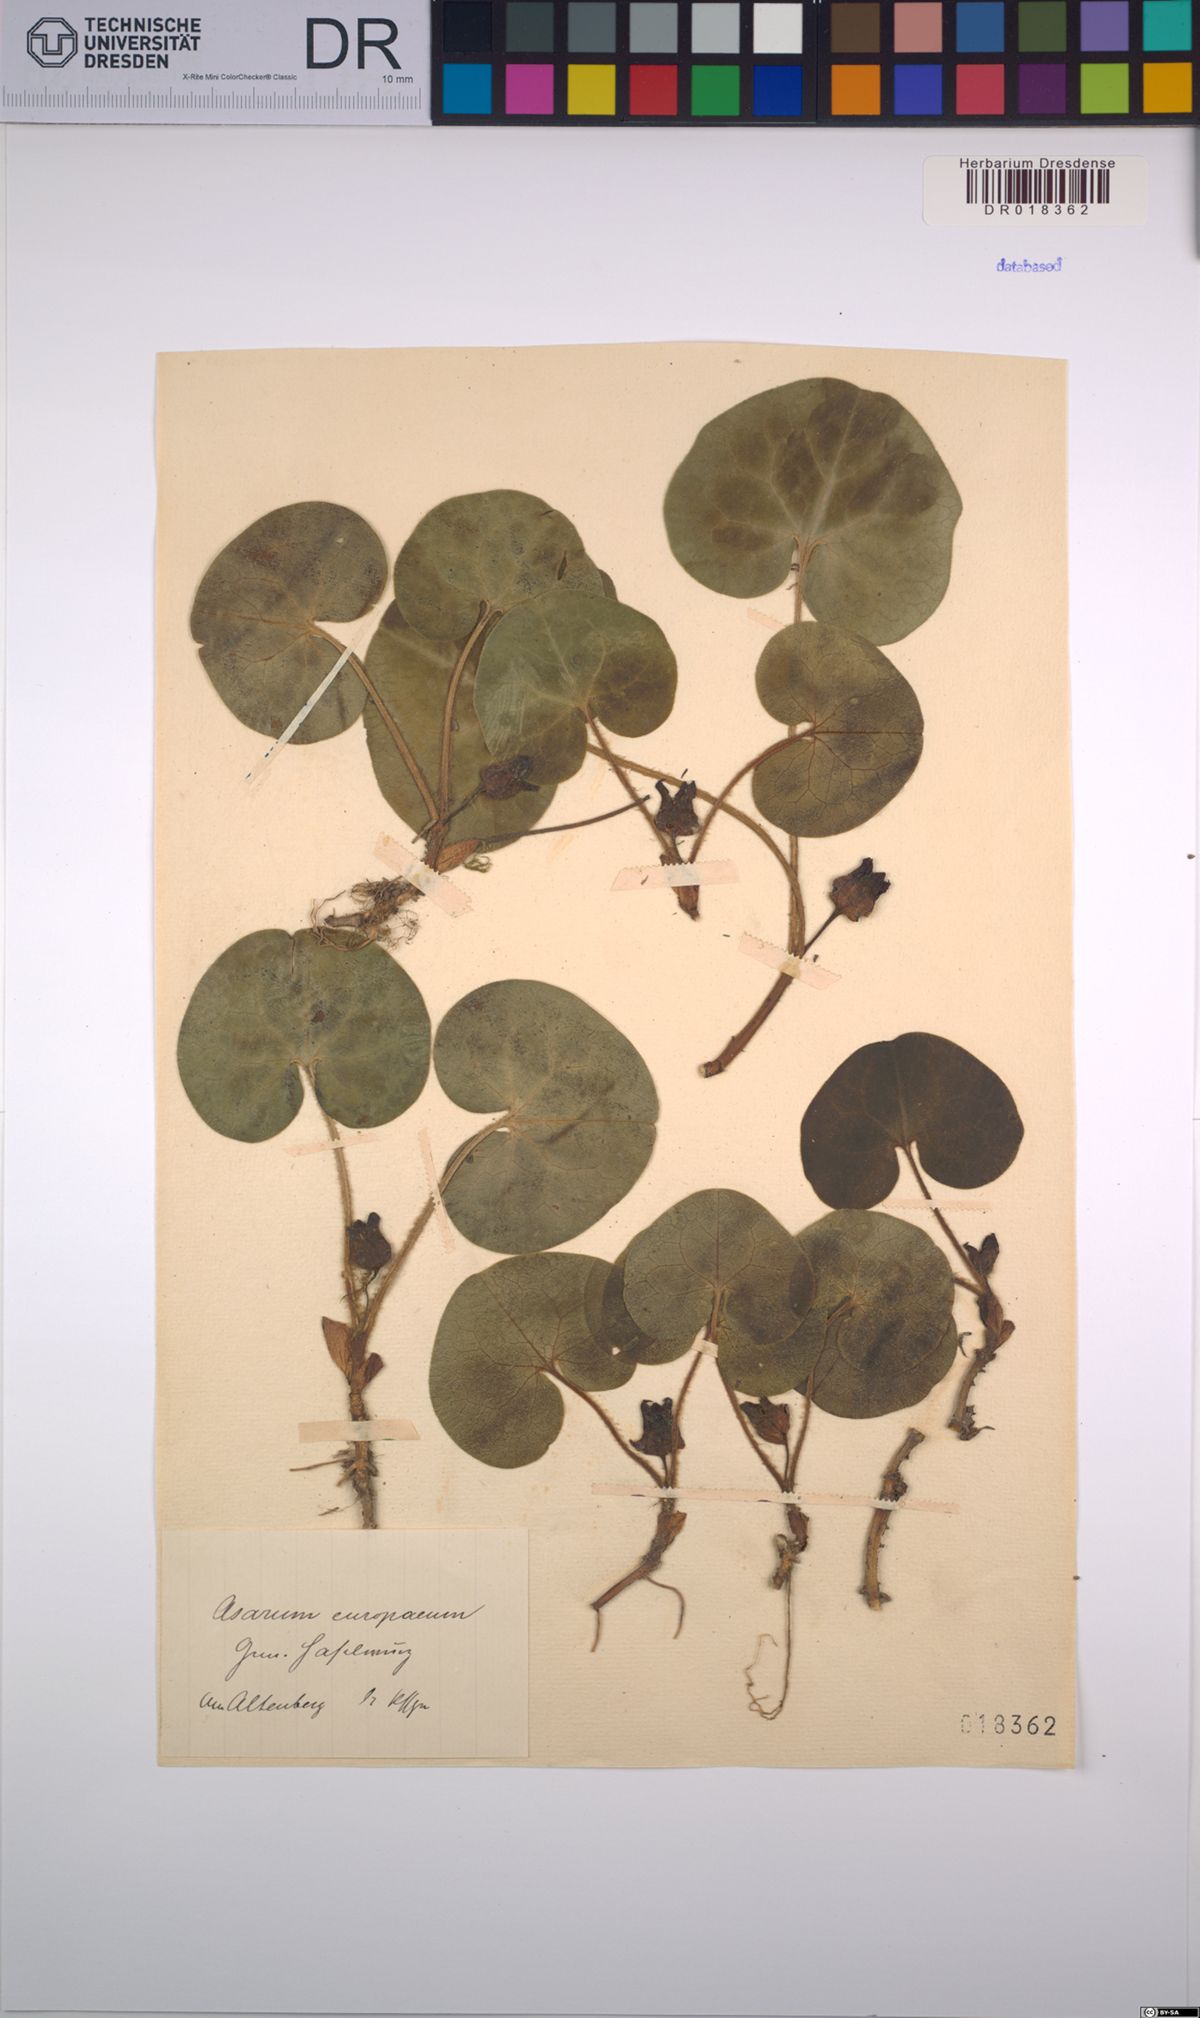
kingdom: Plantae
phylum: Tracheophyta
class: Magnoliopsida
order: Piperales
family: Aristolochiaceae
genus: Asarum
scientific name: Asarum europaeum
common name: Asarabacca
